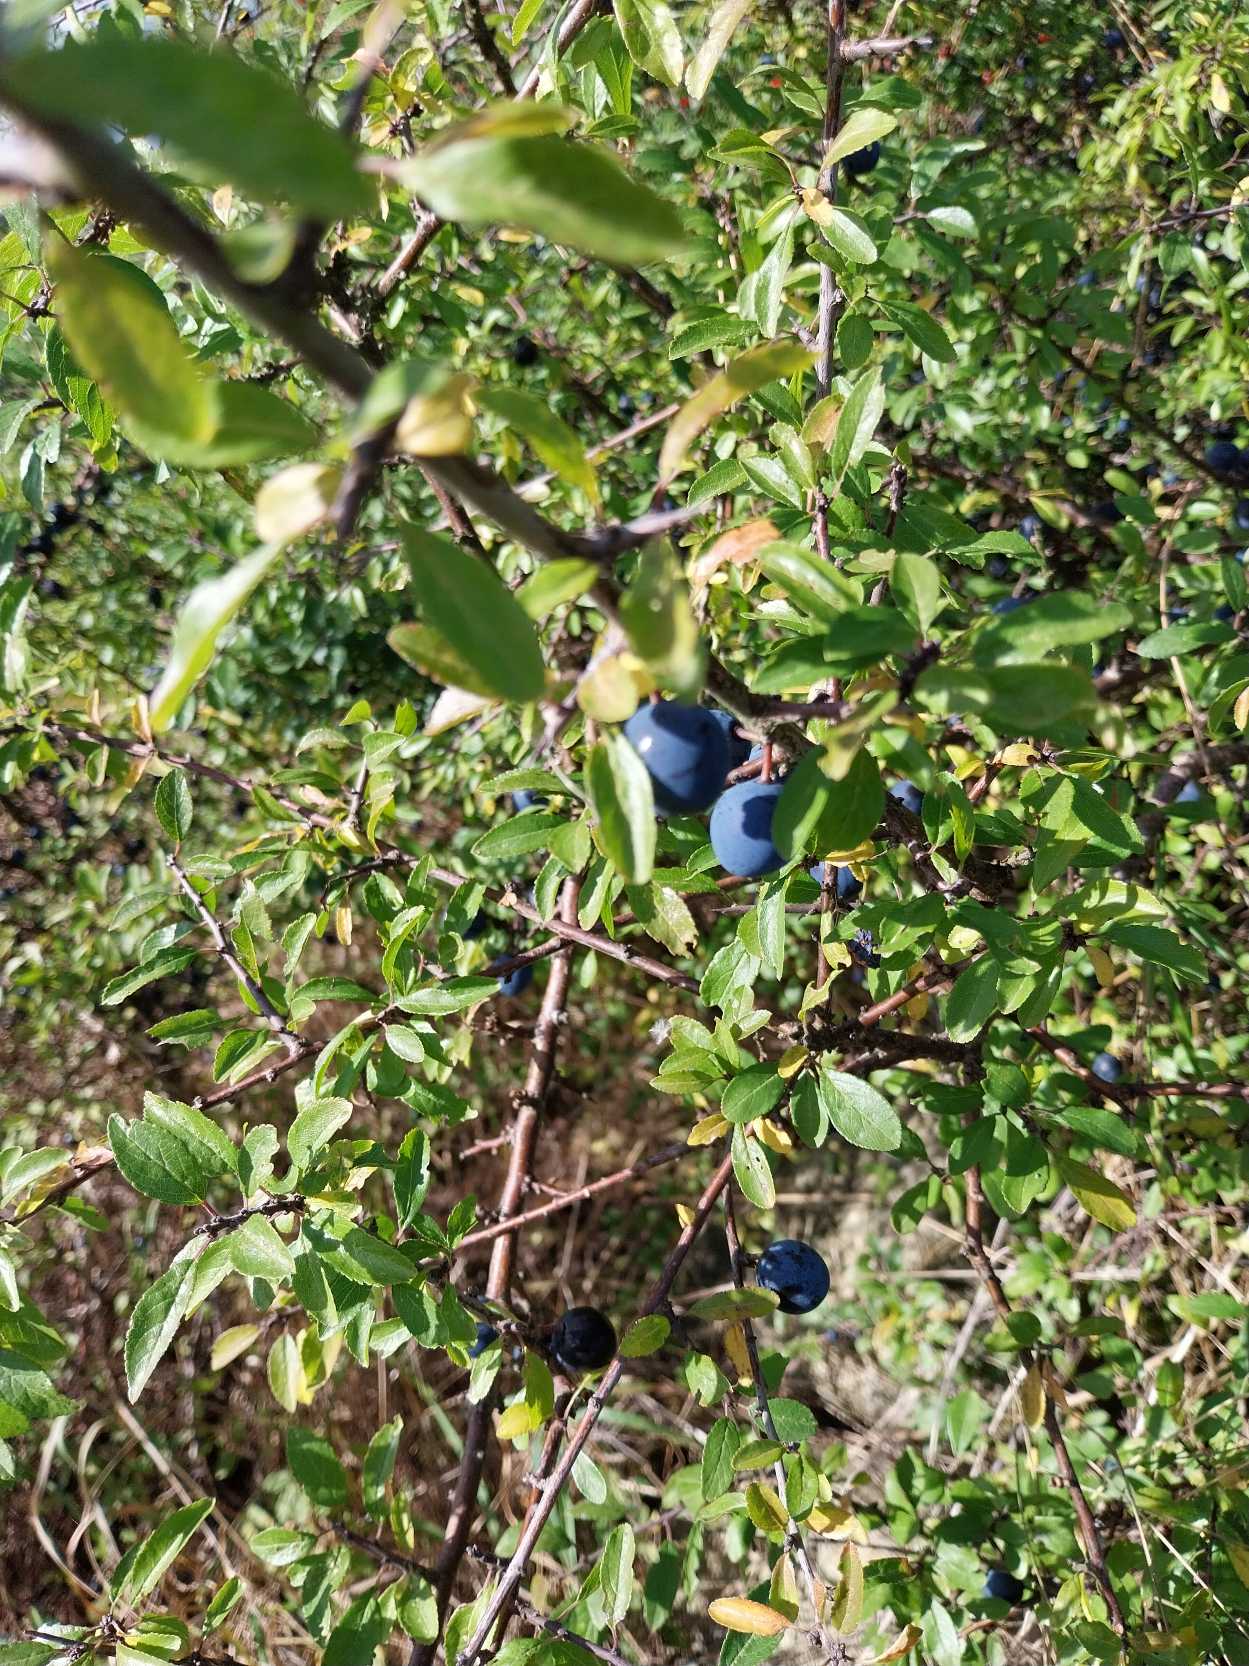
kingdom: Plantae
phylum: Tracheophyta
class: Magnoliopsida
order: Rosales
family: Rosaceae
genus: Prunus
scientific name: Prunus spinosa
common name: Slåen
